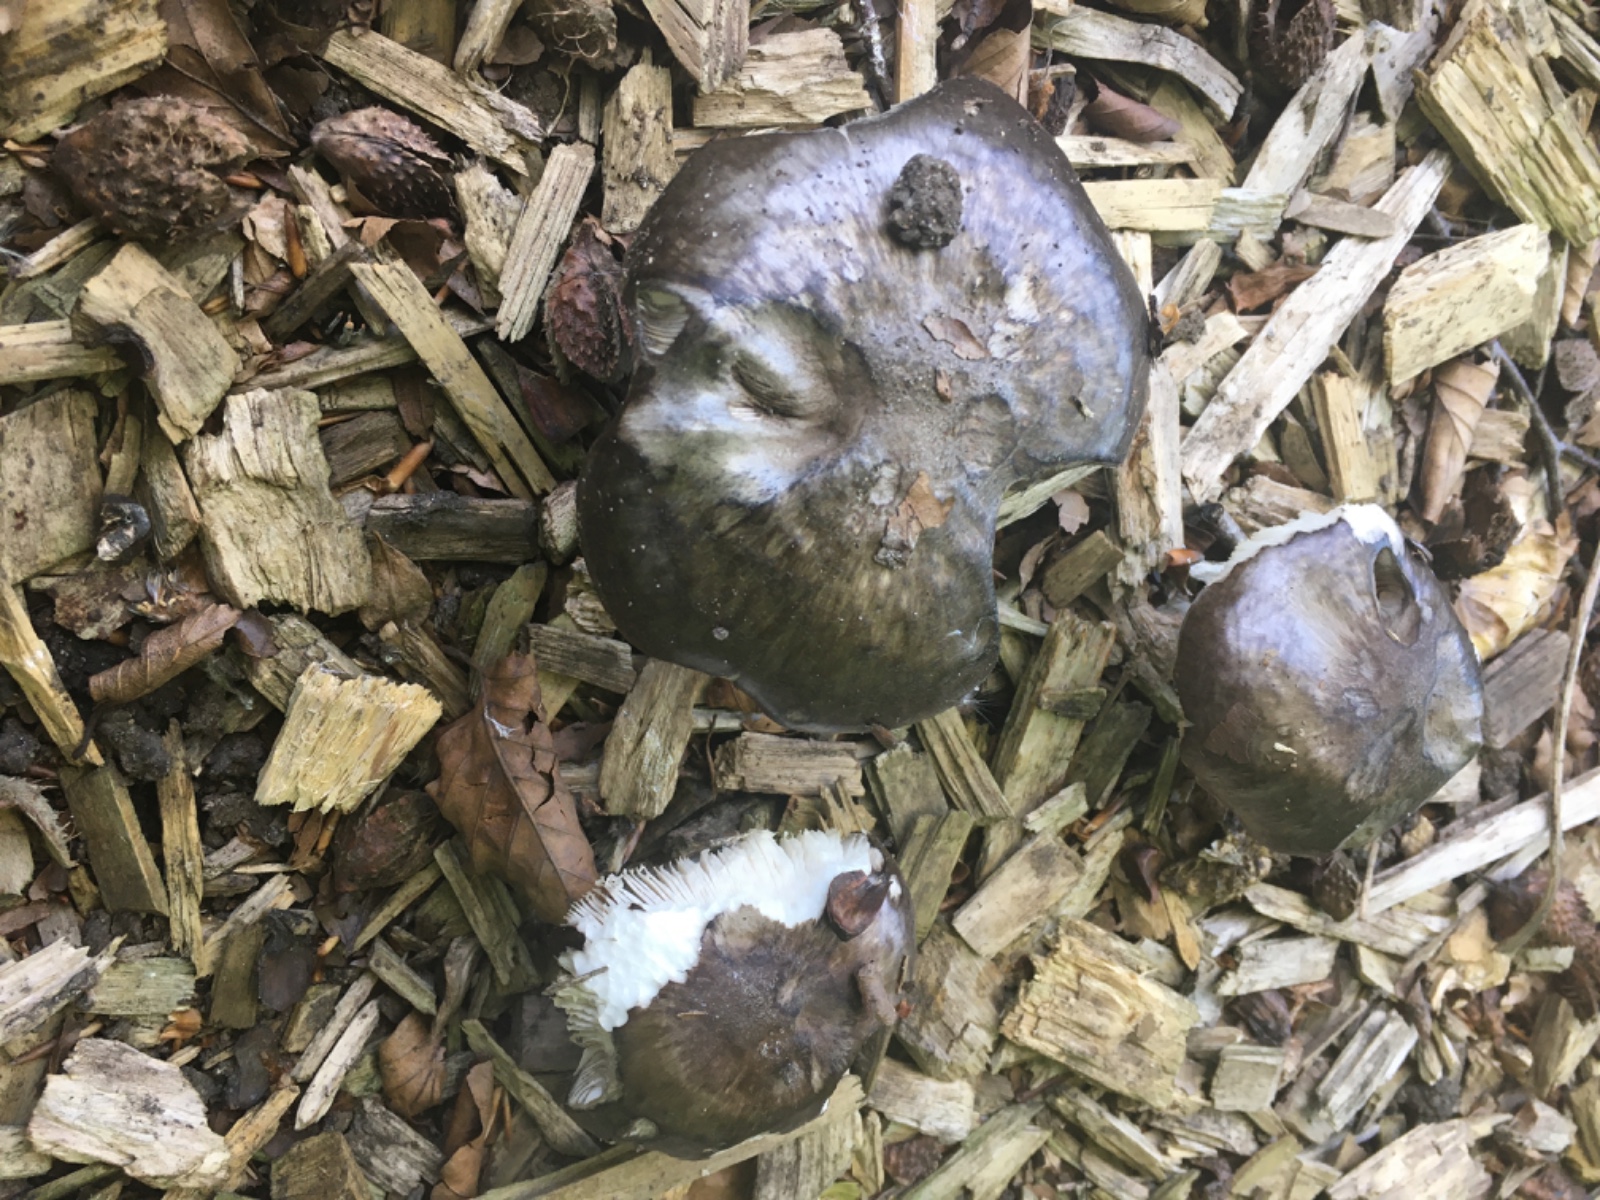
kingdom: Fungi
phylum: Basidiomycota
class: Agaricomycetes
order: Agaricales
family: Pluteaceae
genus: Pluteus
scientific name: Pluteus
